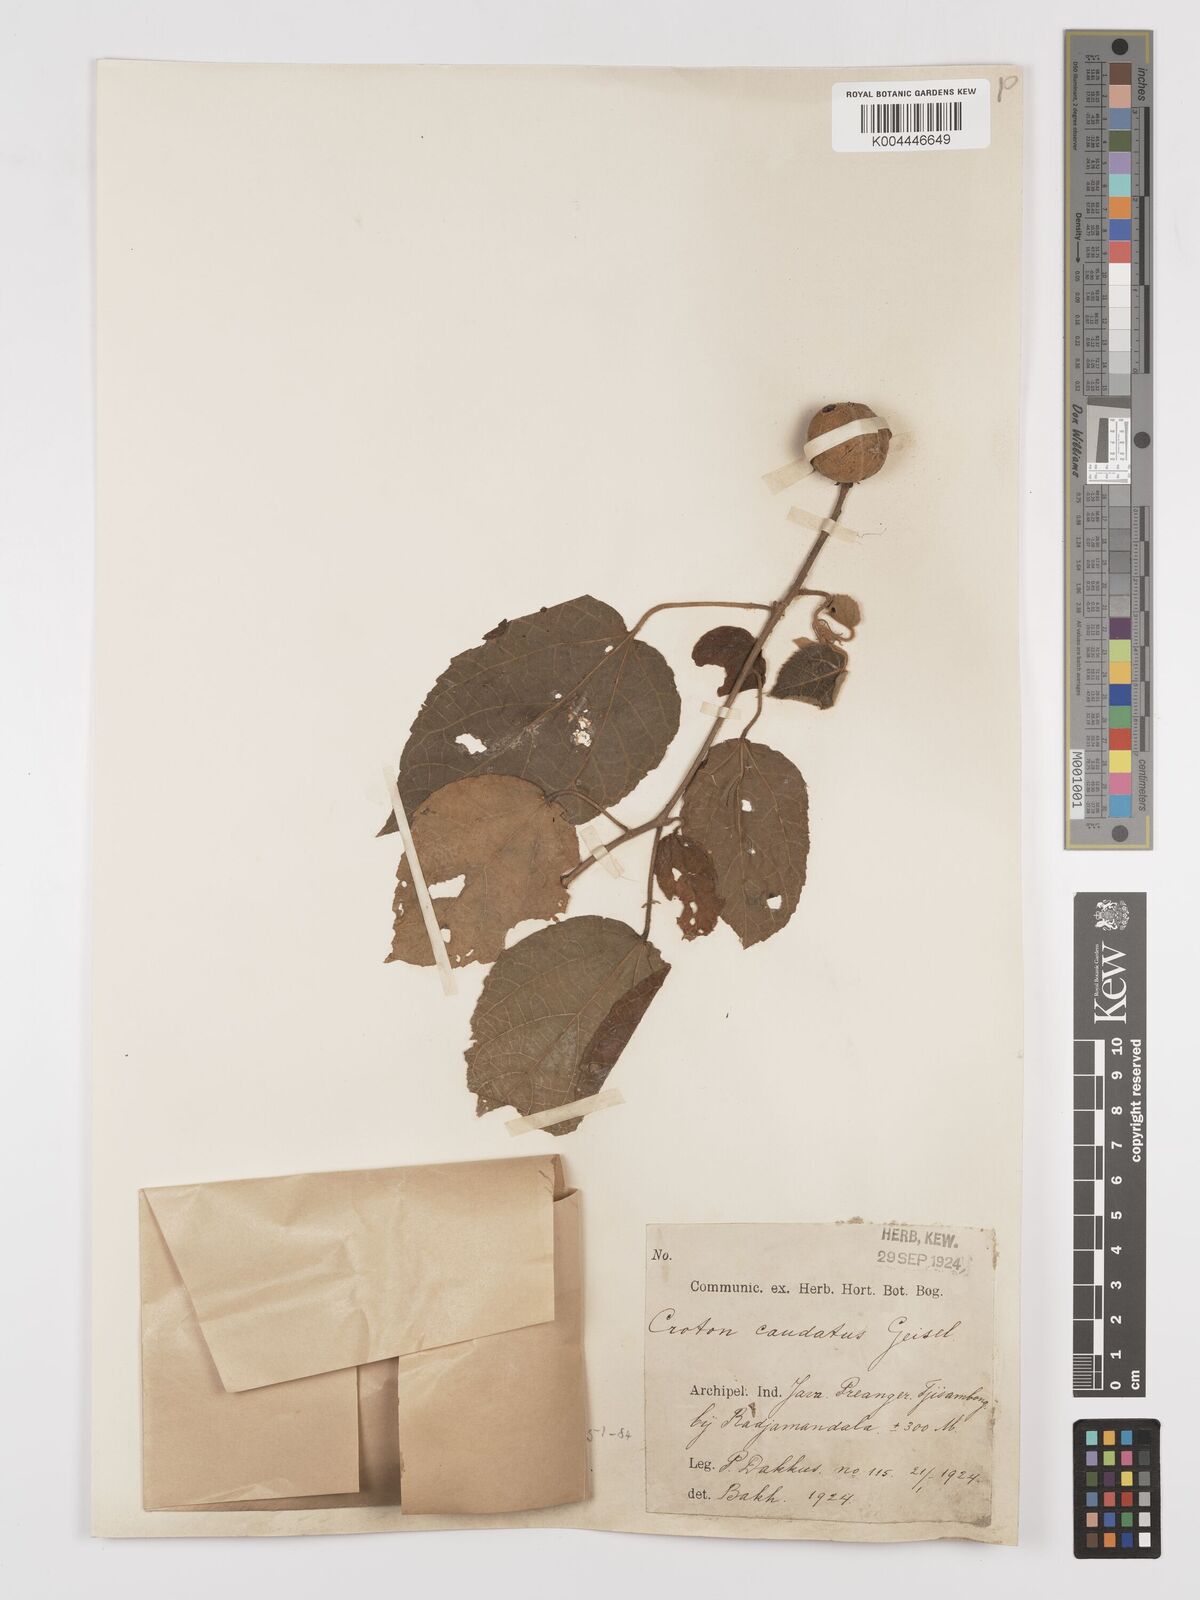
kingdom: Plantae
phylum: Tracheophyta
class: Magnoliopsida
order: Malpighiales
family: Euphorbiaceae
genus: Croton
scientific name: Croton caudatus
